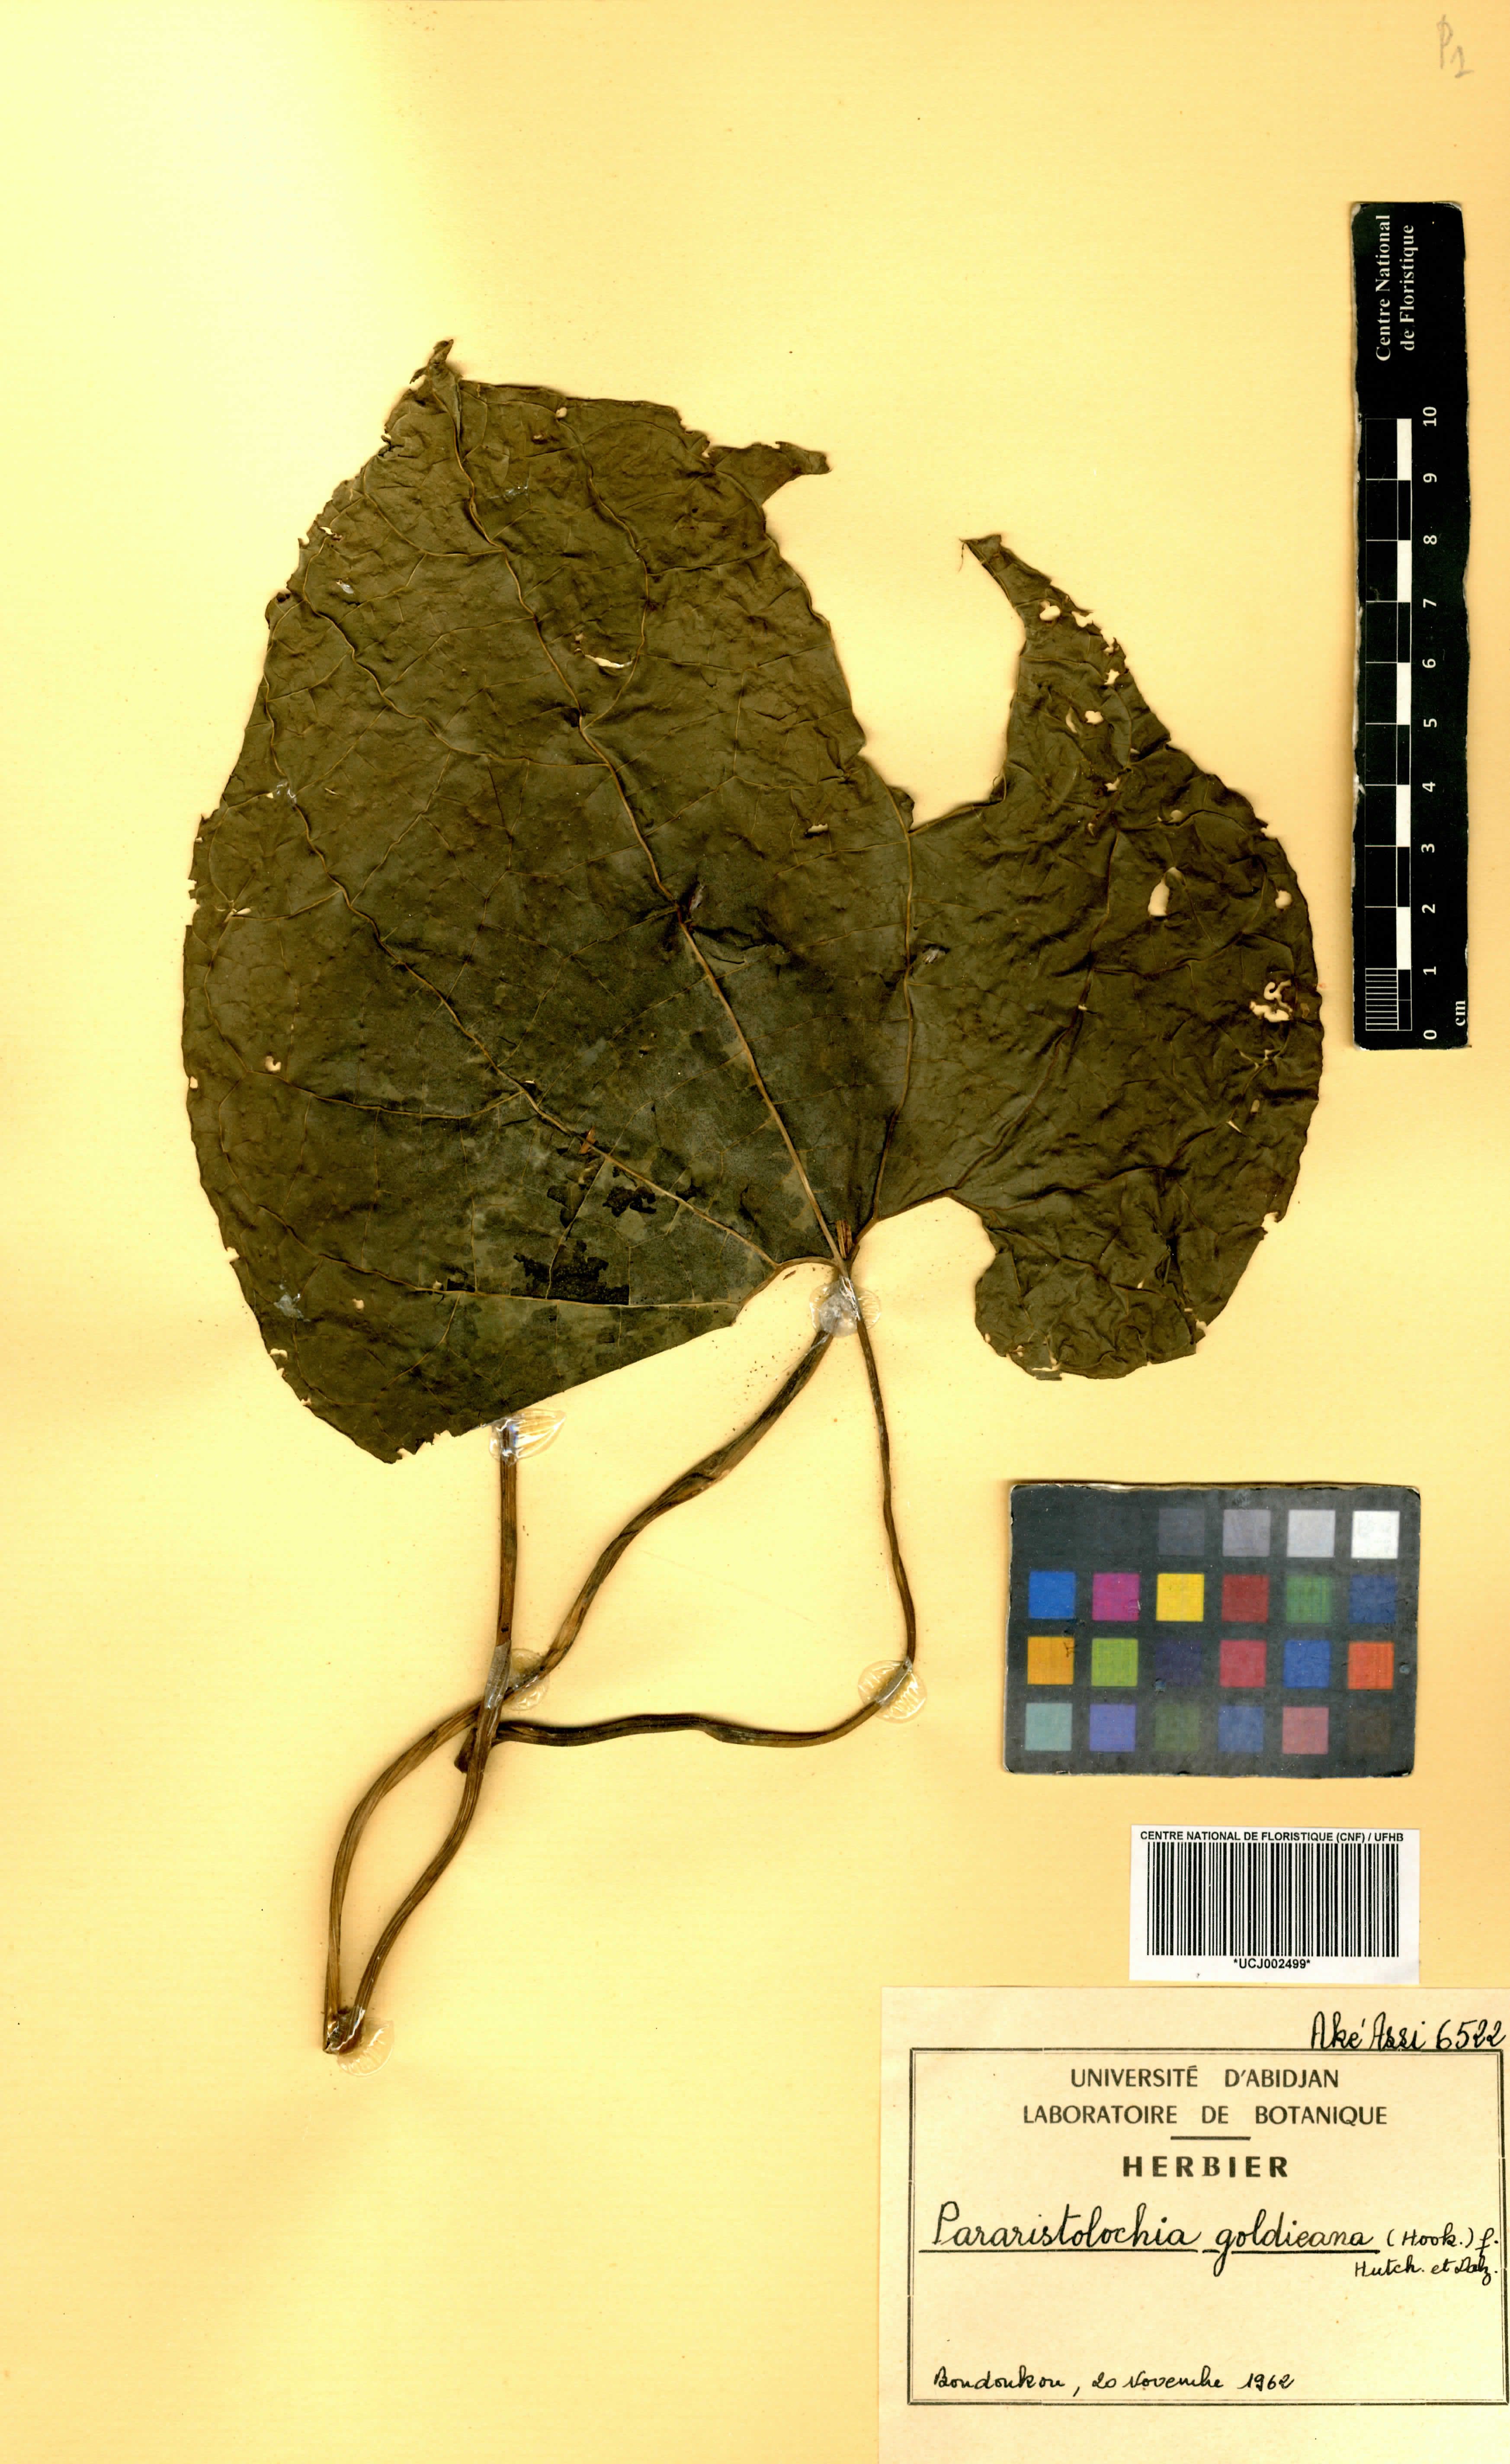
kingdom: Plantae
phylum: Tracheophyta
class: Magnoliopsida
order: Piperales
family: Aristolochiaceae
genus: Aristolochia
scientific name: Aristolochia goldieana
